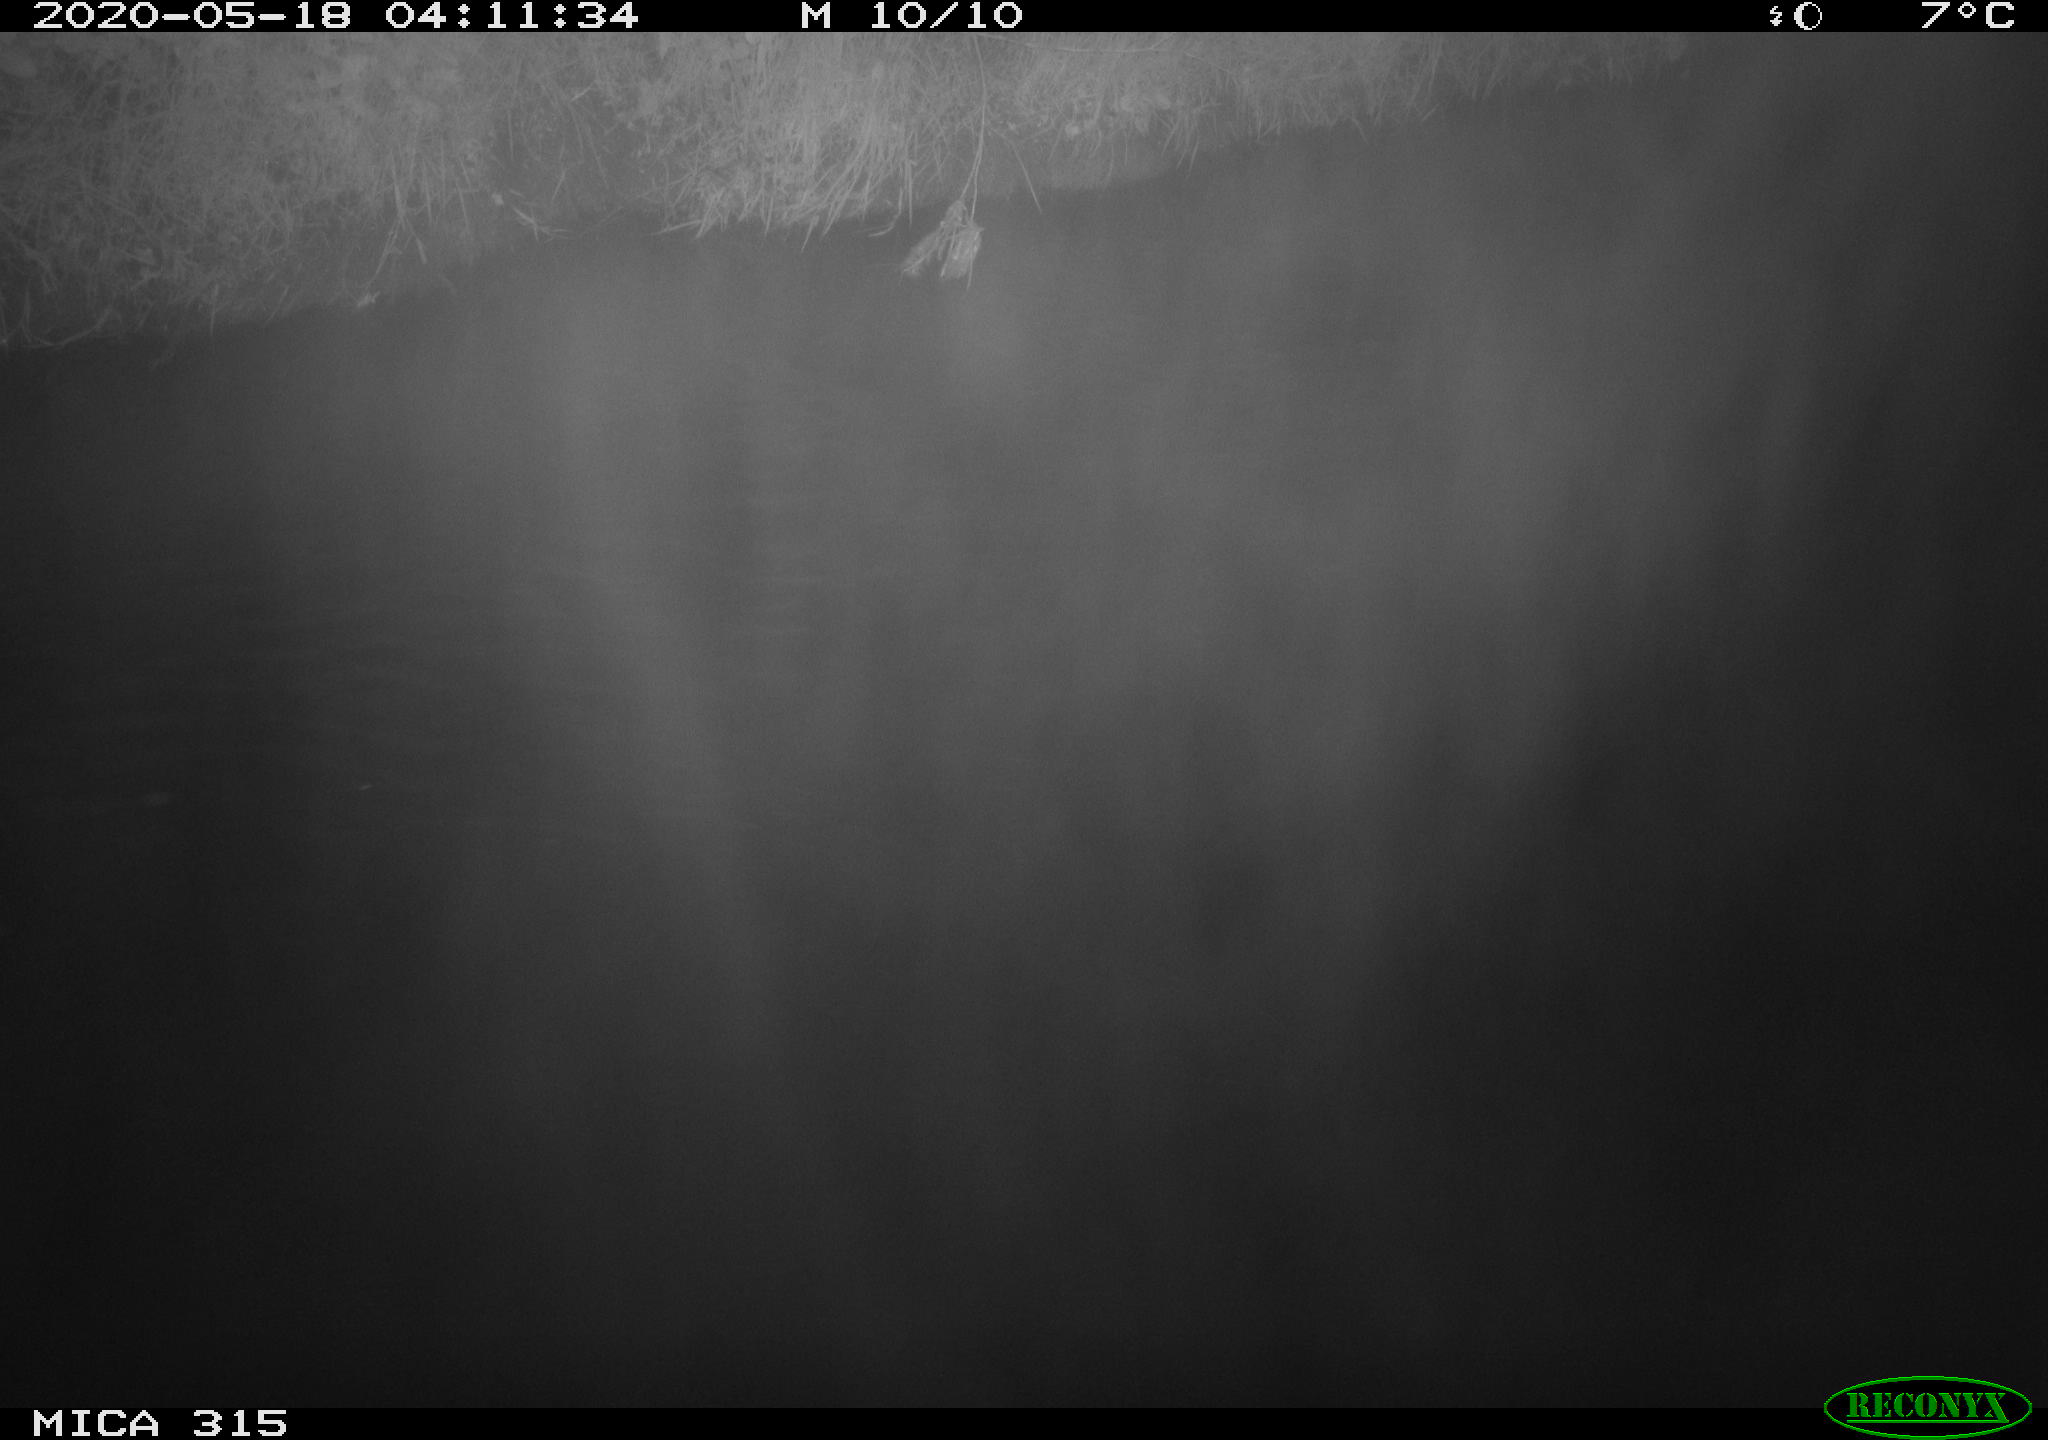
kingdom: Animalia
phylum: Chordata
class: Aves
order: Anseriformes
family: Anatidae
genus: Anas
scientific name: Anas platyrhynchos
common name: Mallard
